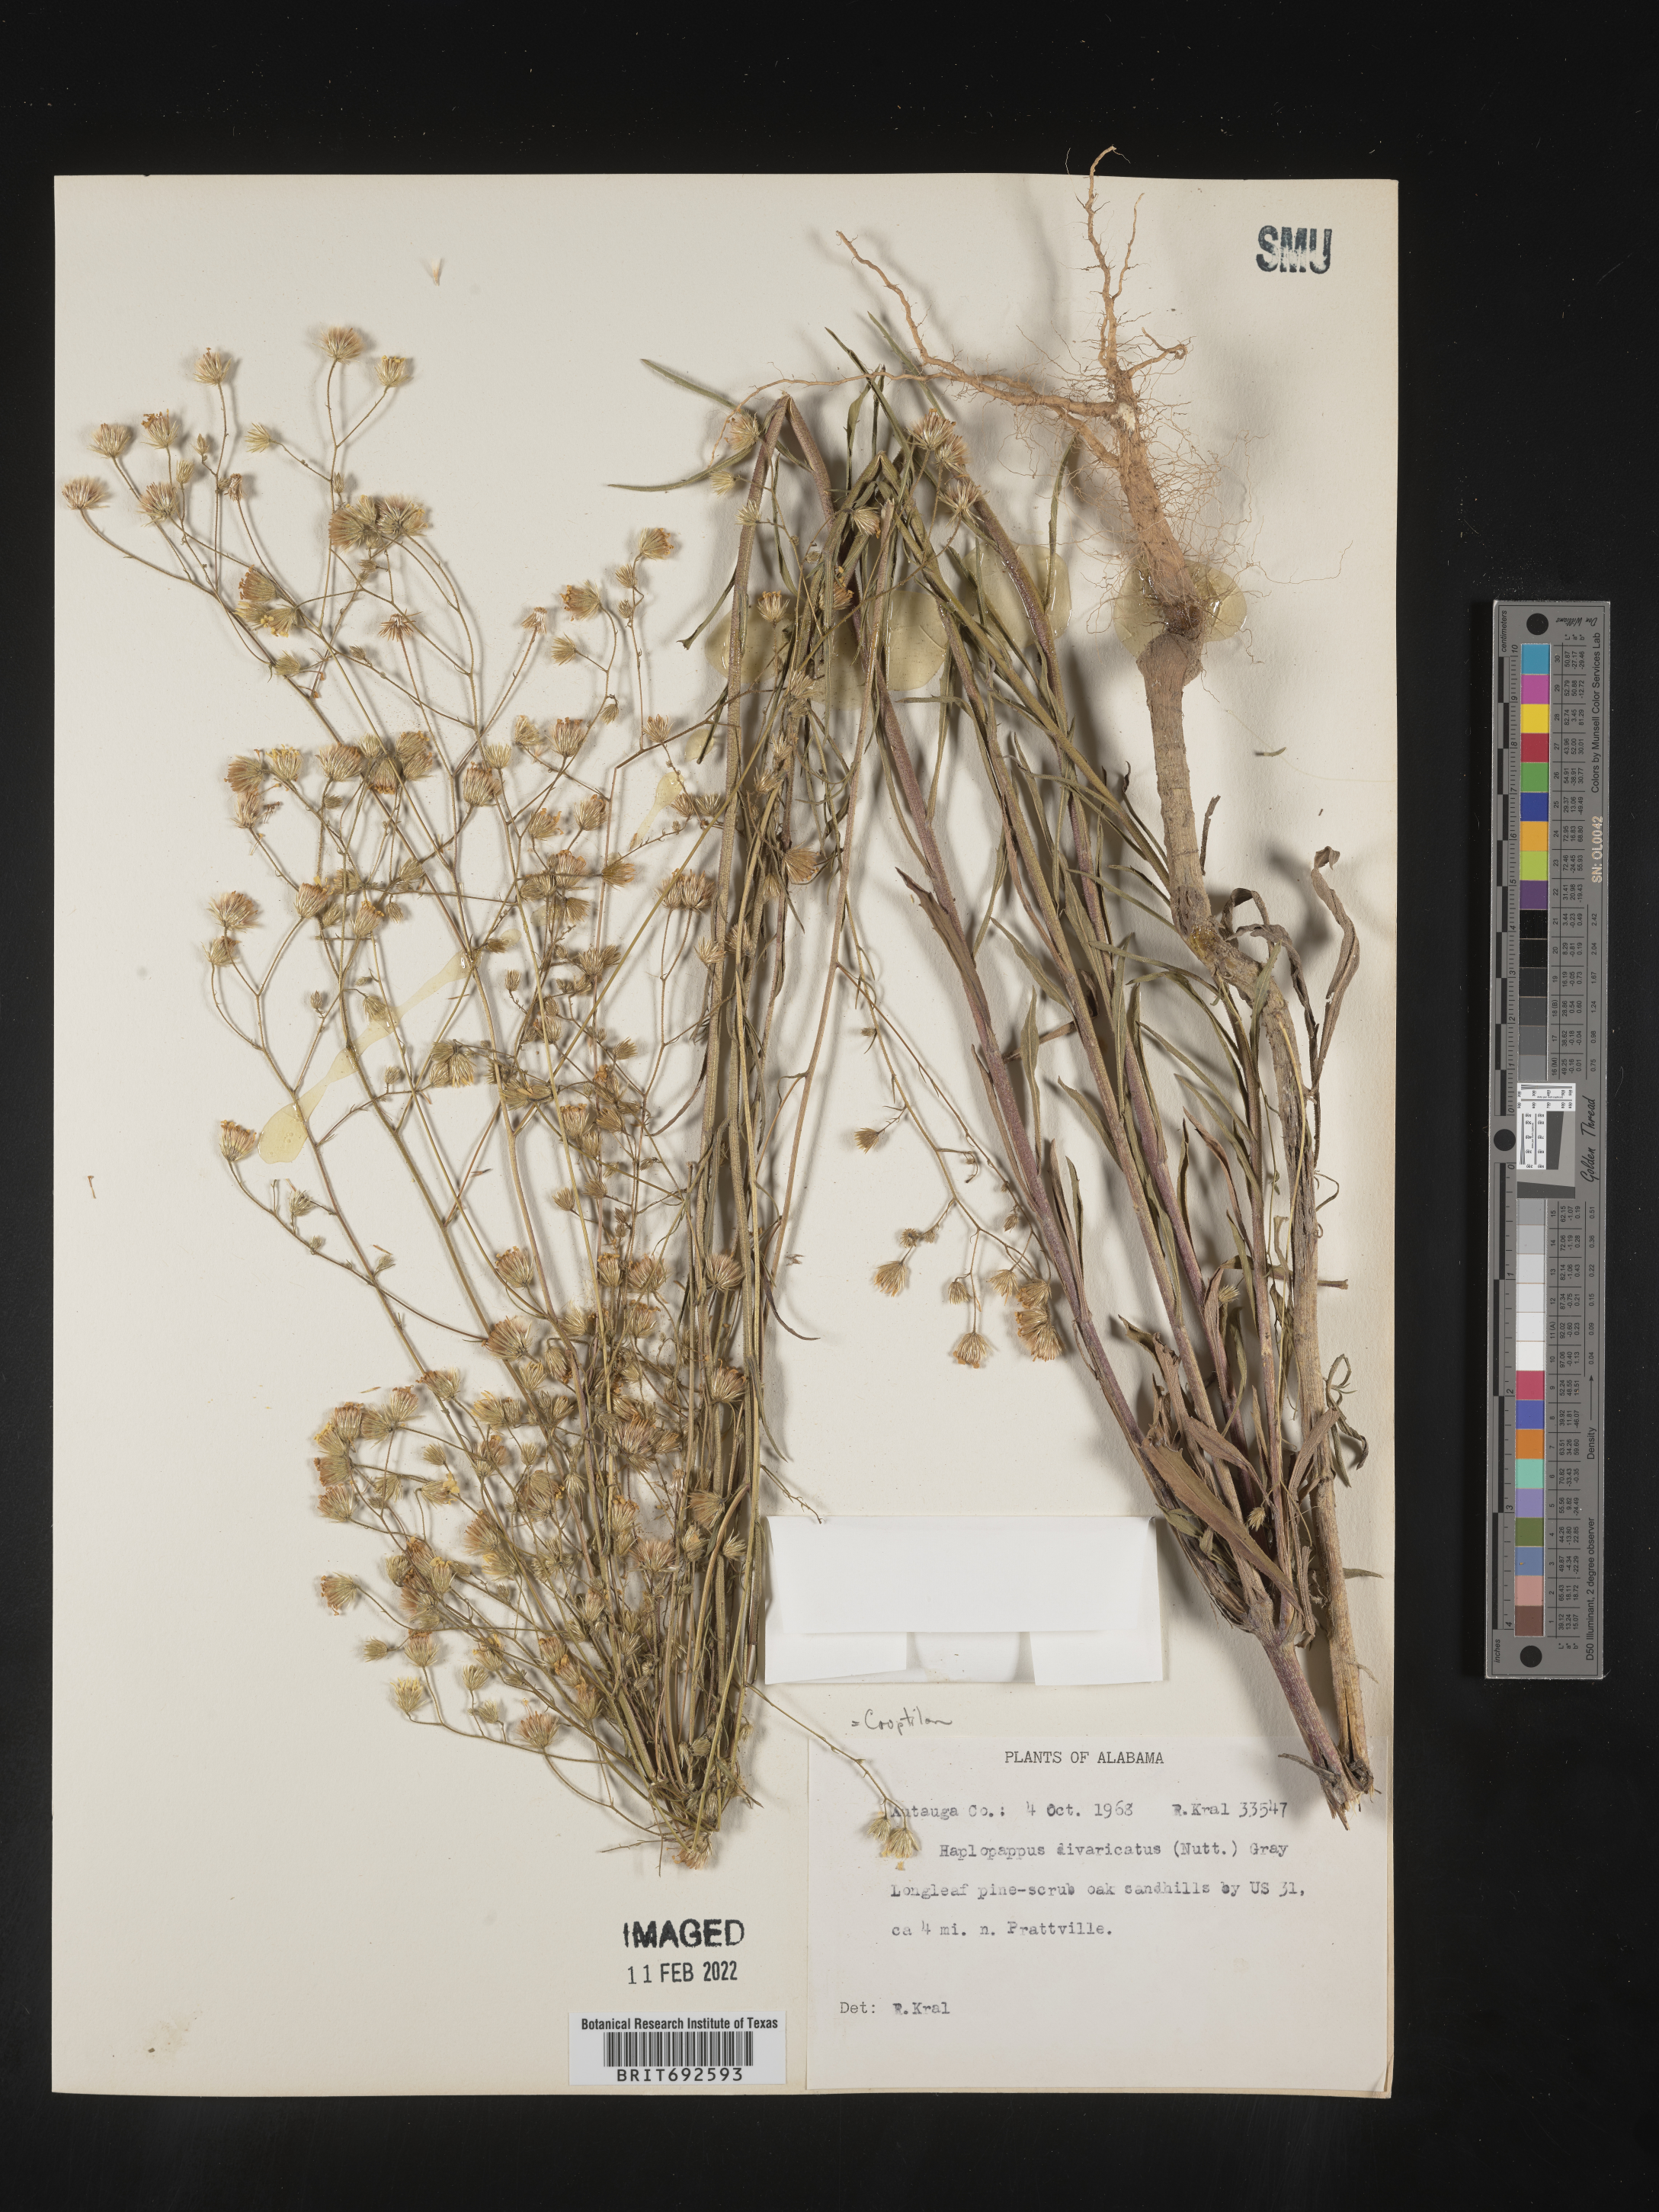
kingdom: Plantae
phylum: Tracheophyta
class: Magnoliopsida
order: Asterales
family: Asteraceae
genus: Croptilon
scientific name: Croptilon divaricatum
